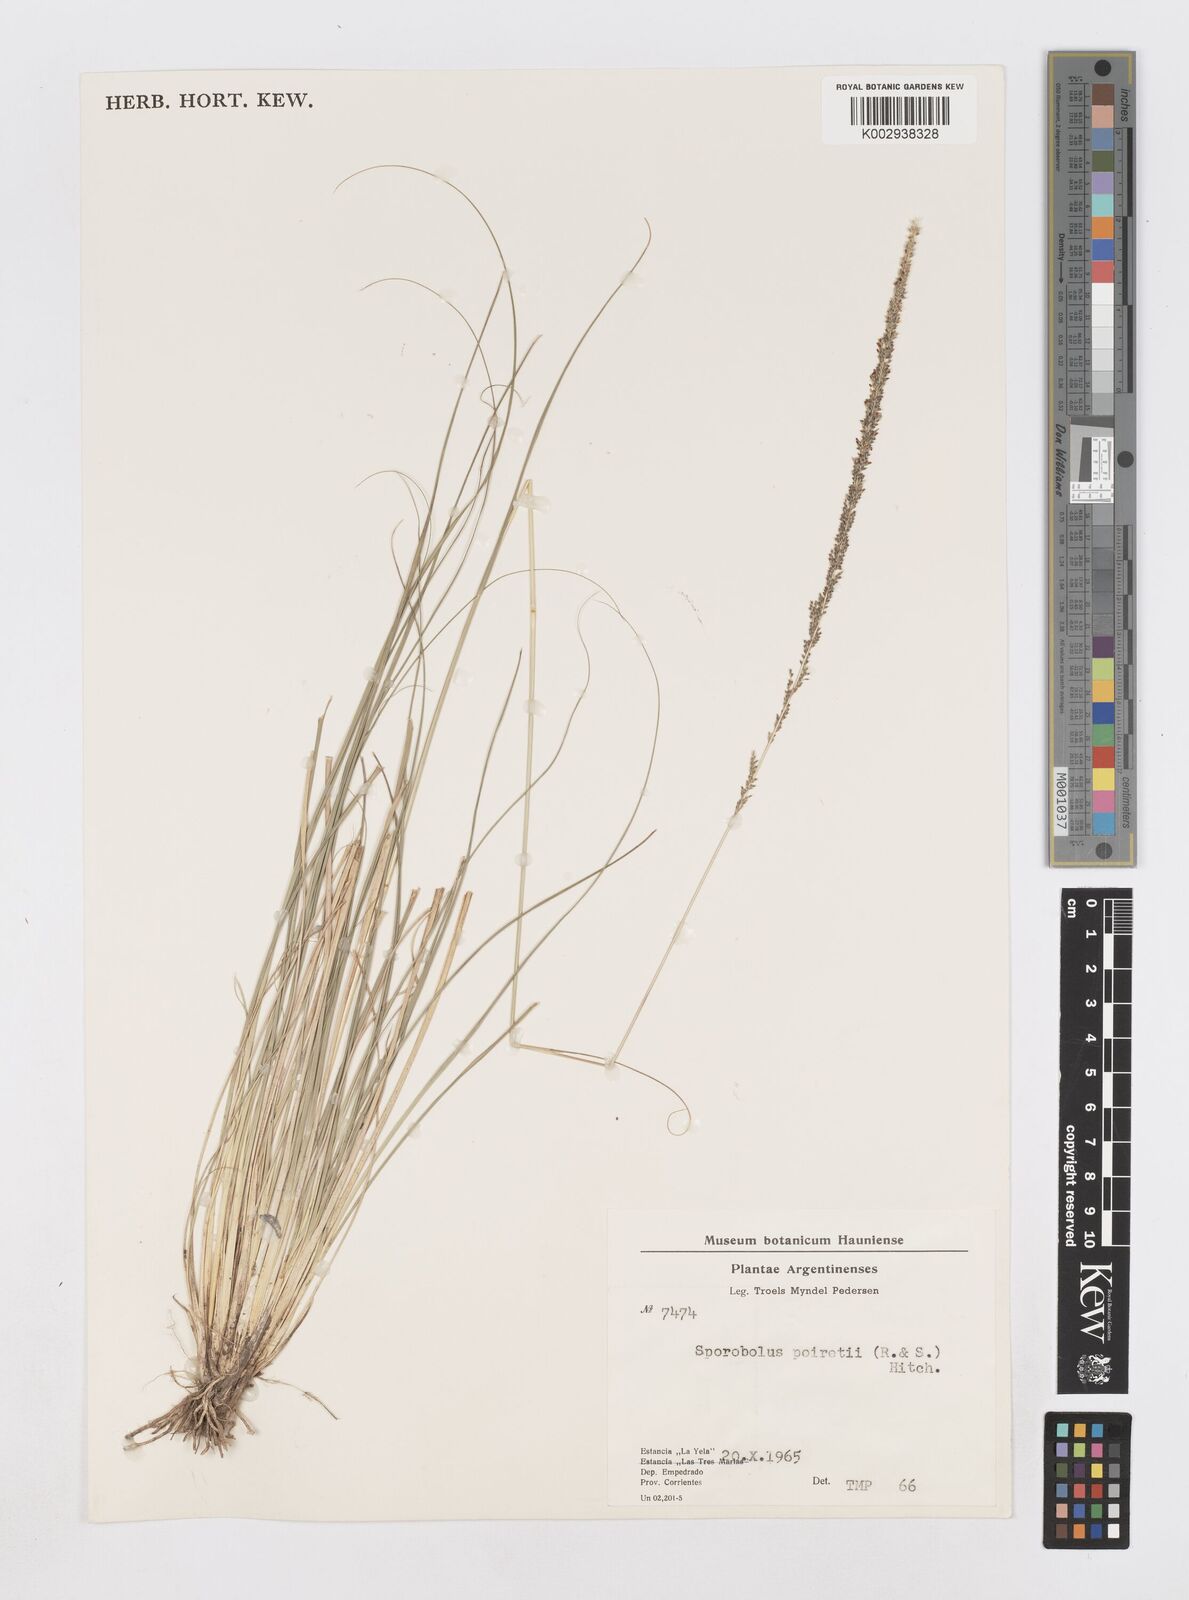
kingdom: Plantae
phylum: Tracheophyta
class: Liliopsida
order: Poales
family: Poaceae
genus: Sporobolus
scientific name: Sporobolus minor
